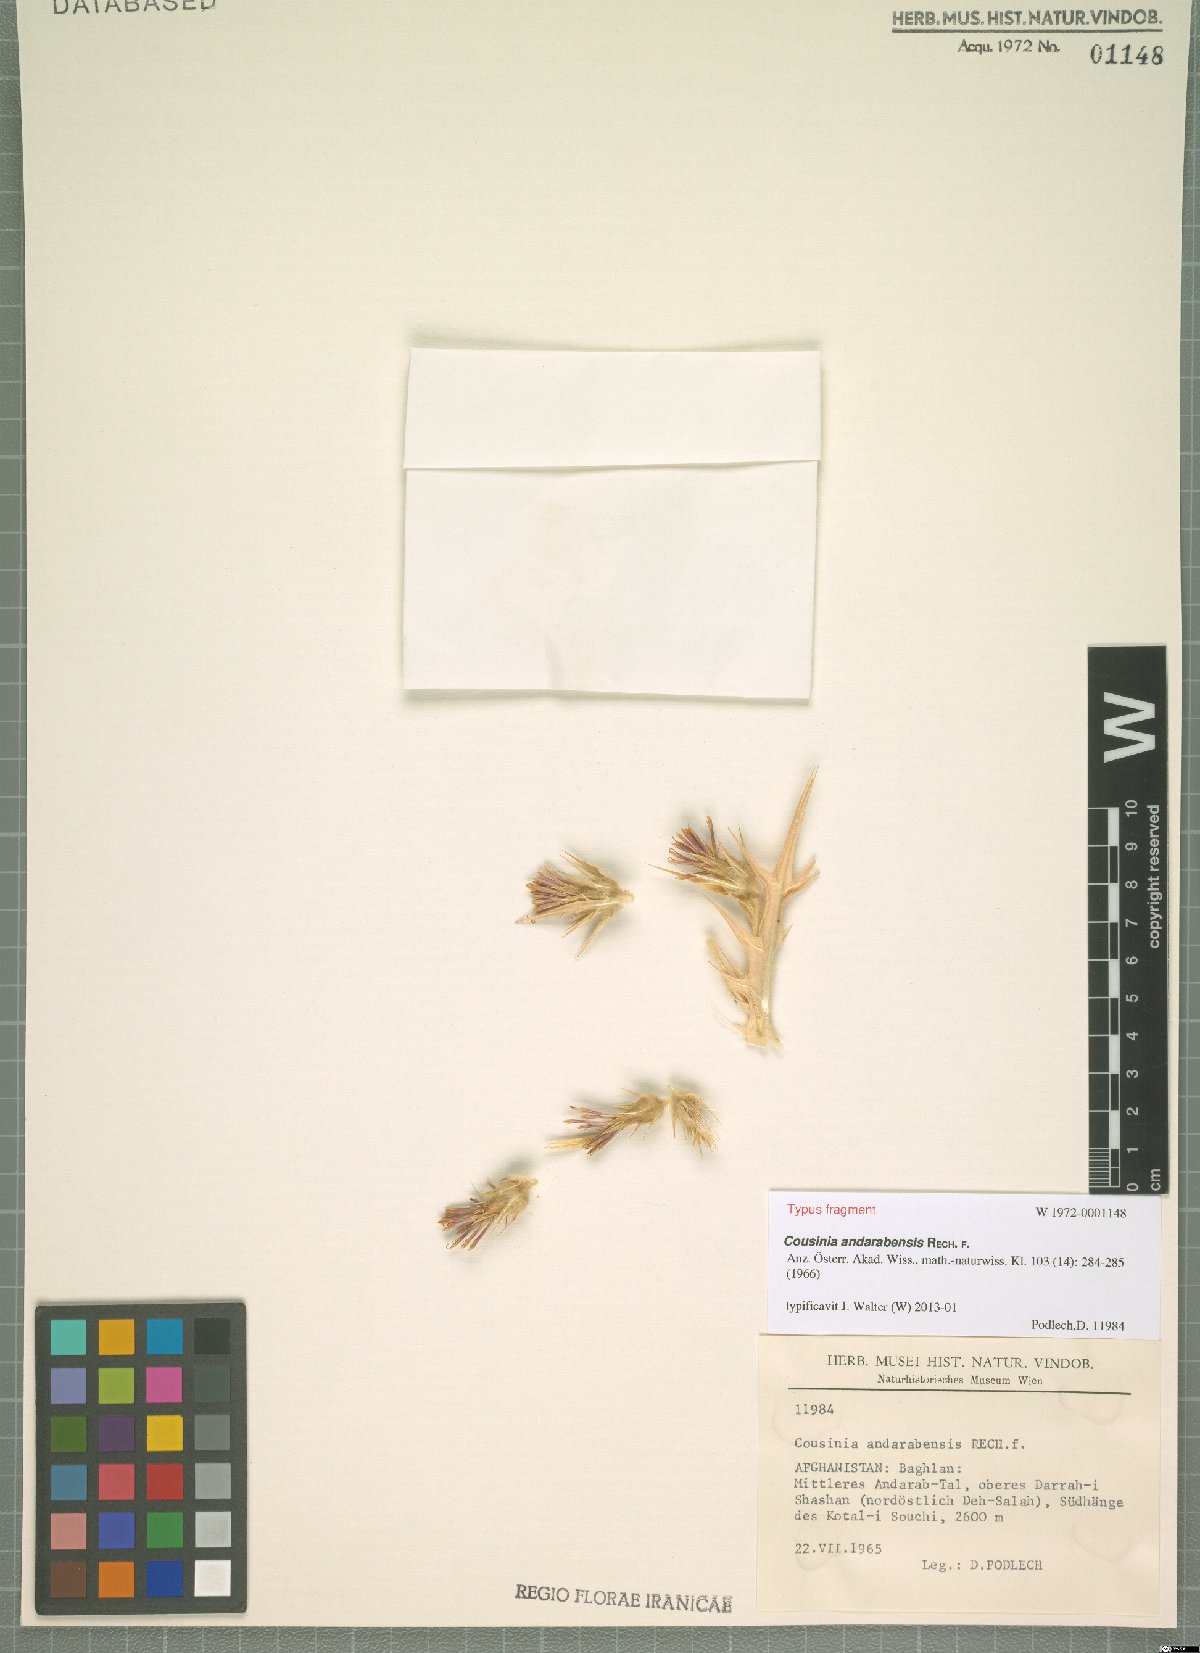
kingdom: Plantae
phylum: Tracheophyta
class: Magnoliopsida
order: Asterales
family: Asteraceae
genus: Cousinia
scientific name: Cousinia andarabensis
